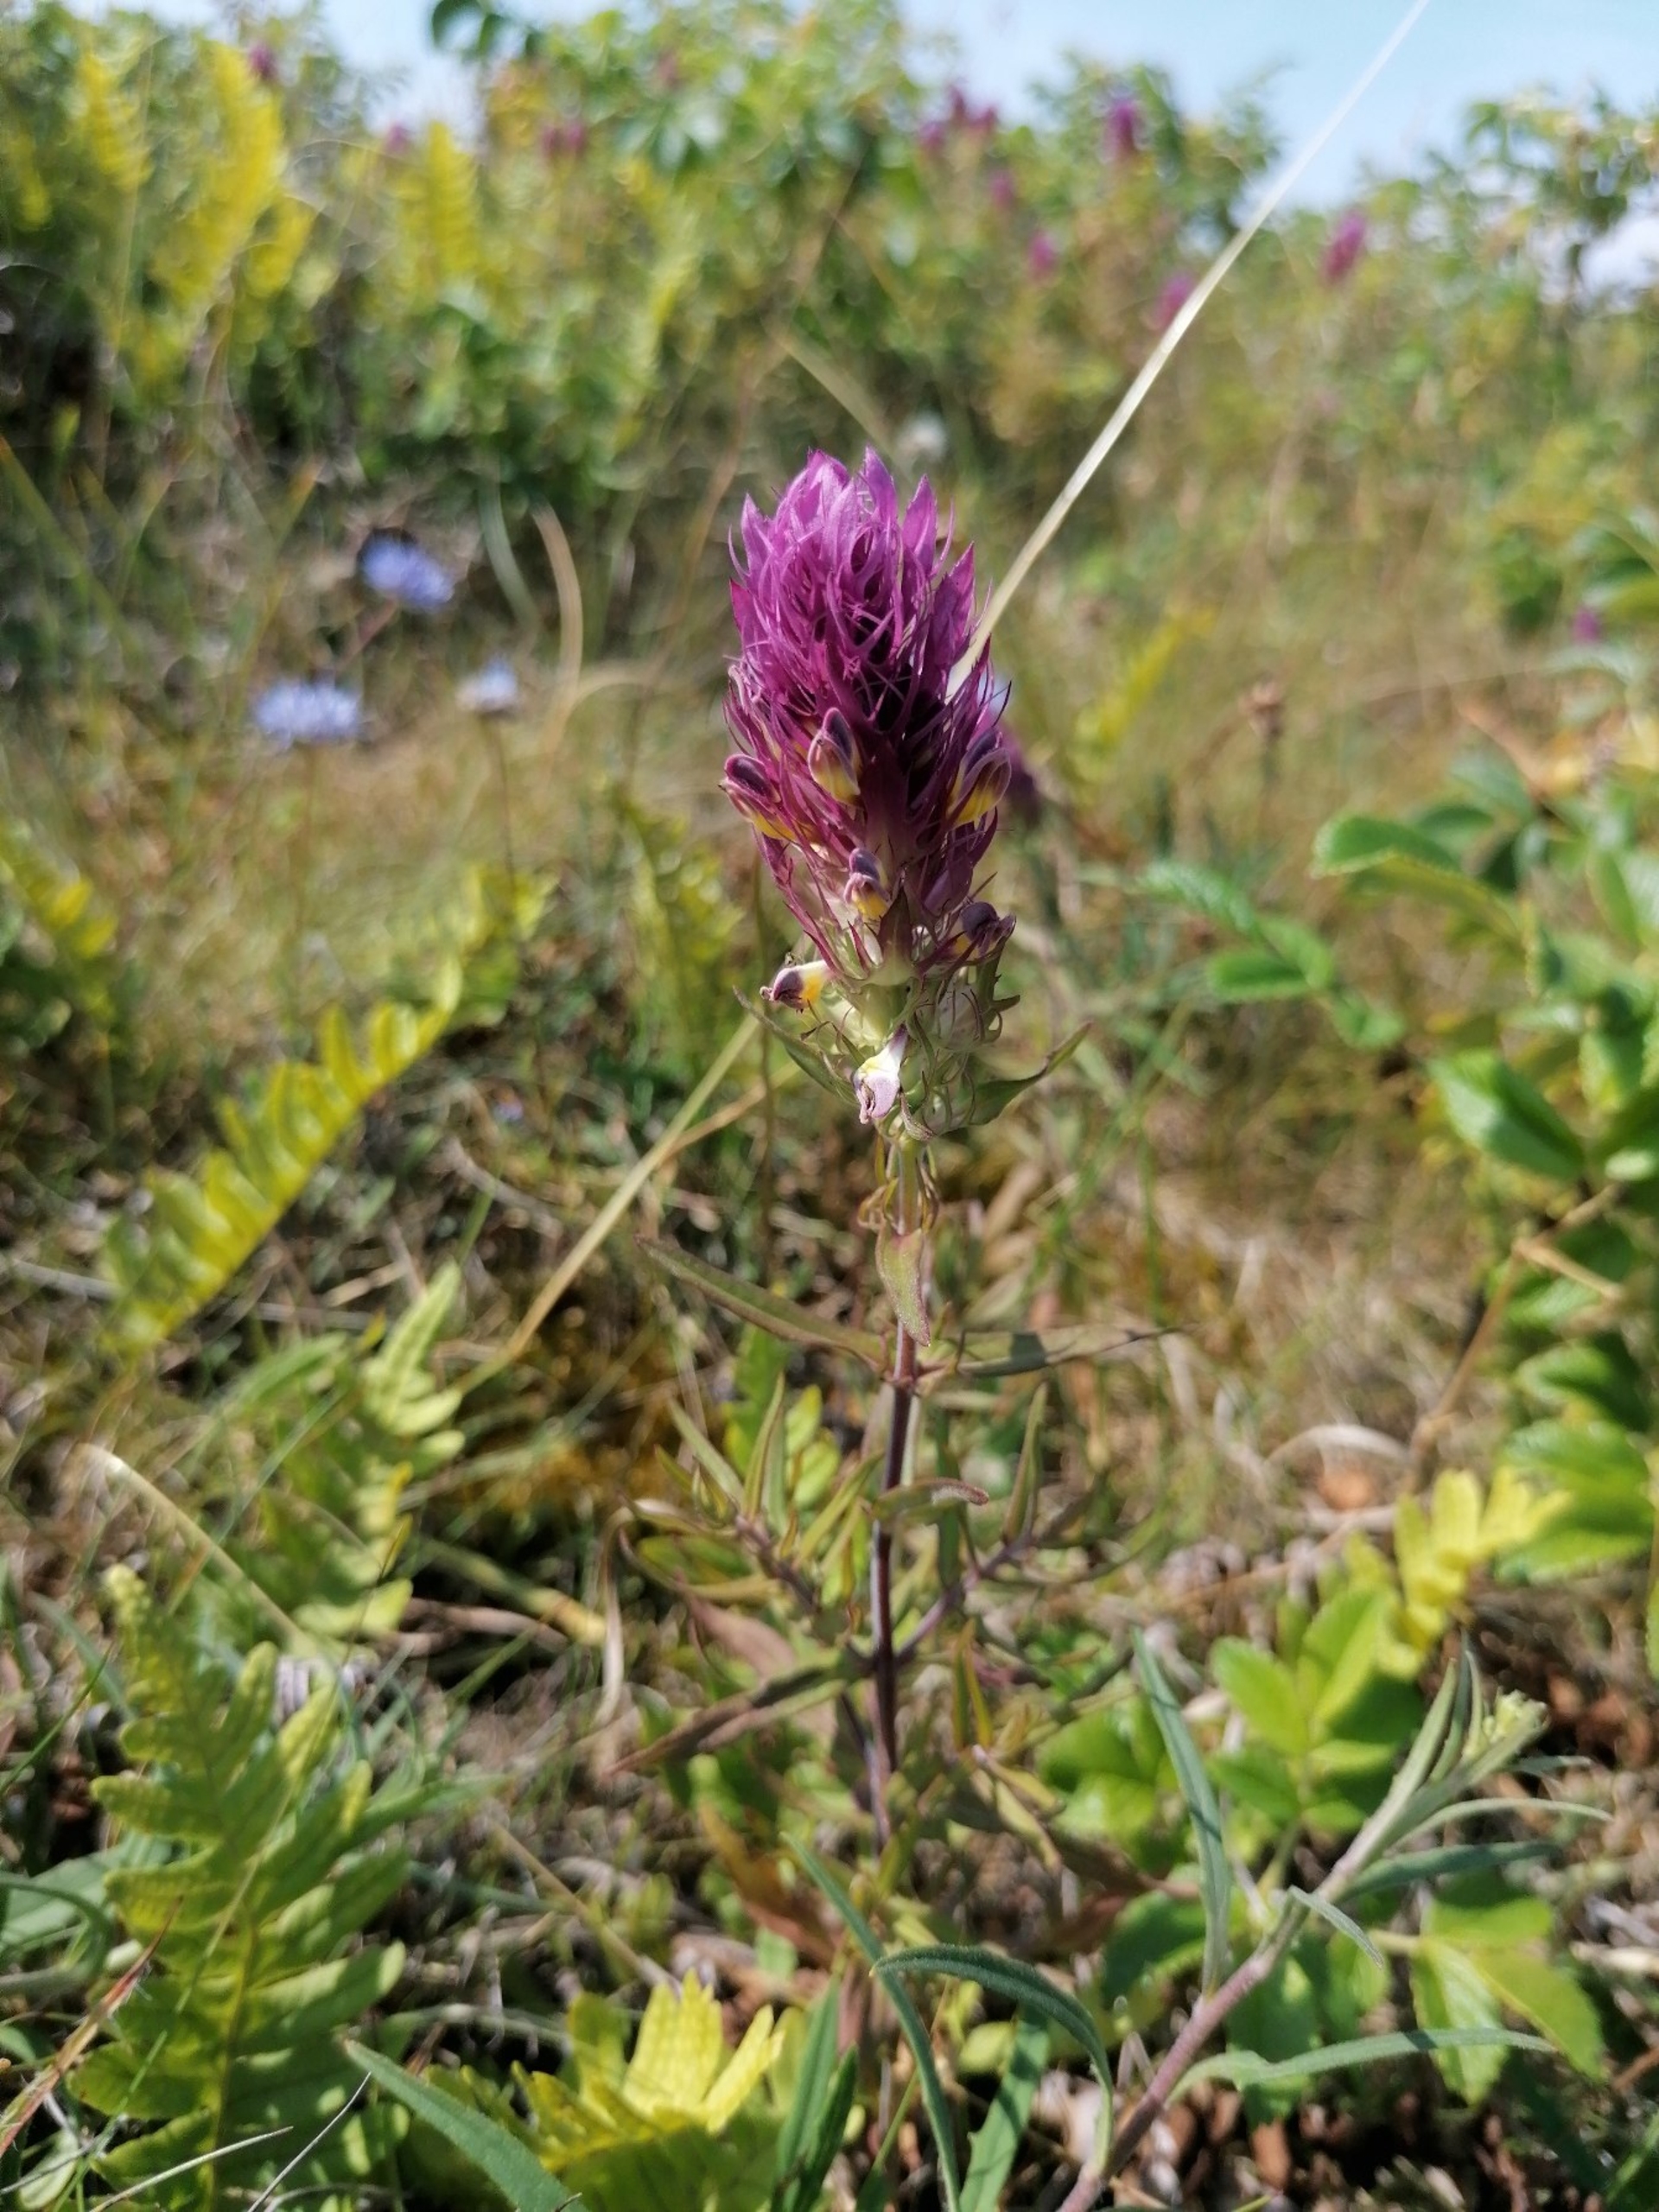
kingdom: Plantae
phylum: Tracheophyta
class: Magnoliopsida
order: Lamiales
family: Orobanchaceae
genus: Melampyrum
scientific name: Melampyrum arvense
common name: Ager-kohvede
